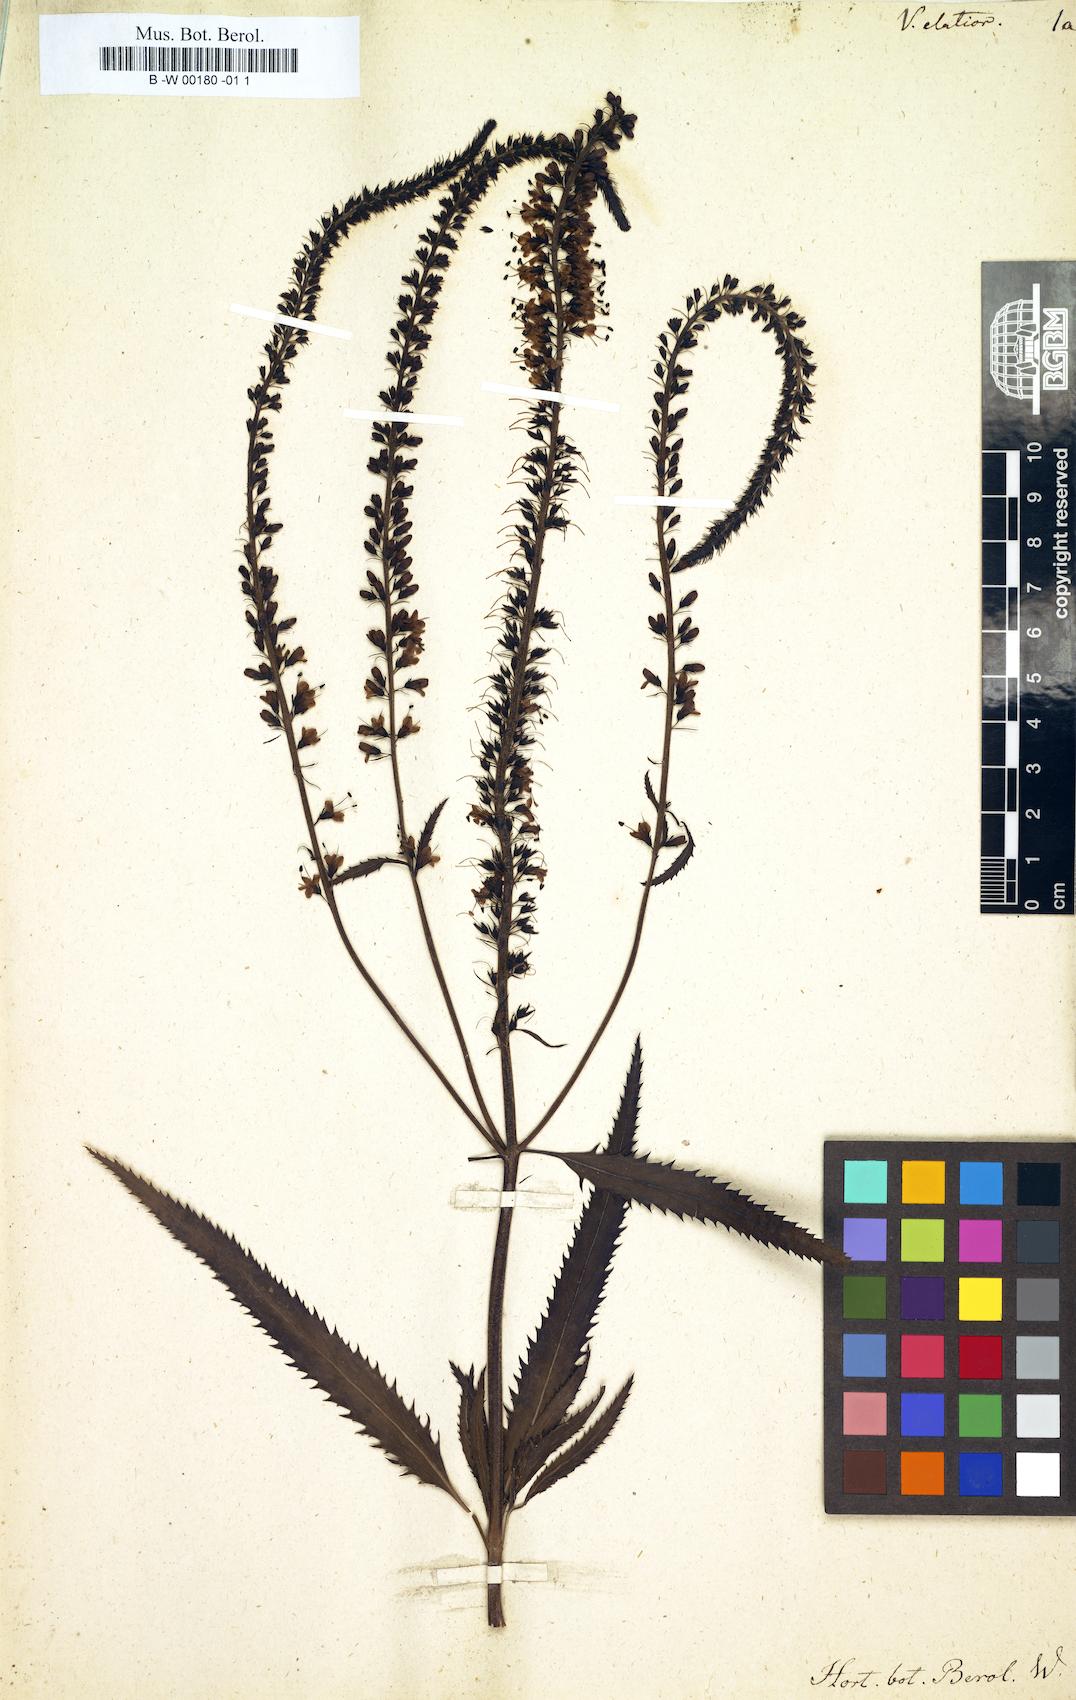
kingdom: Plantae
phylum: Tracheophyta
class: Magnoliopsida
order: Lamiales
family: Plantaginaceae
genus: Veronica
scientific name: Veronica maritima
